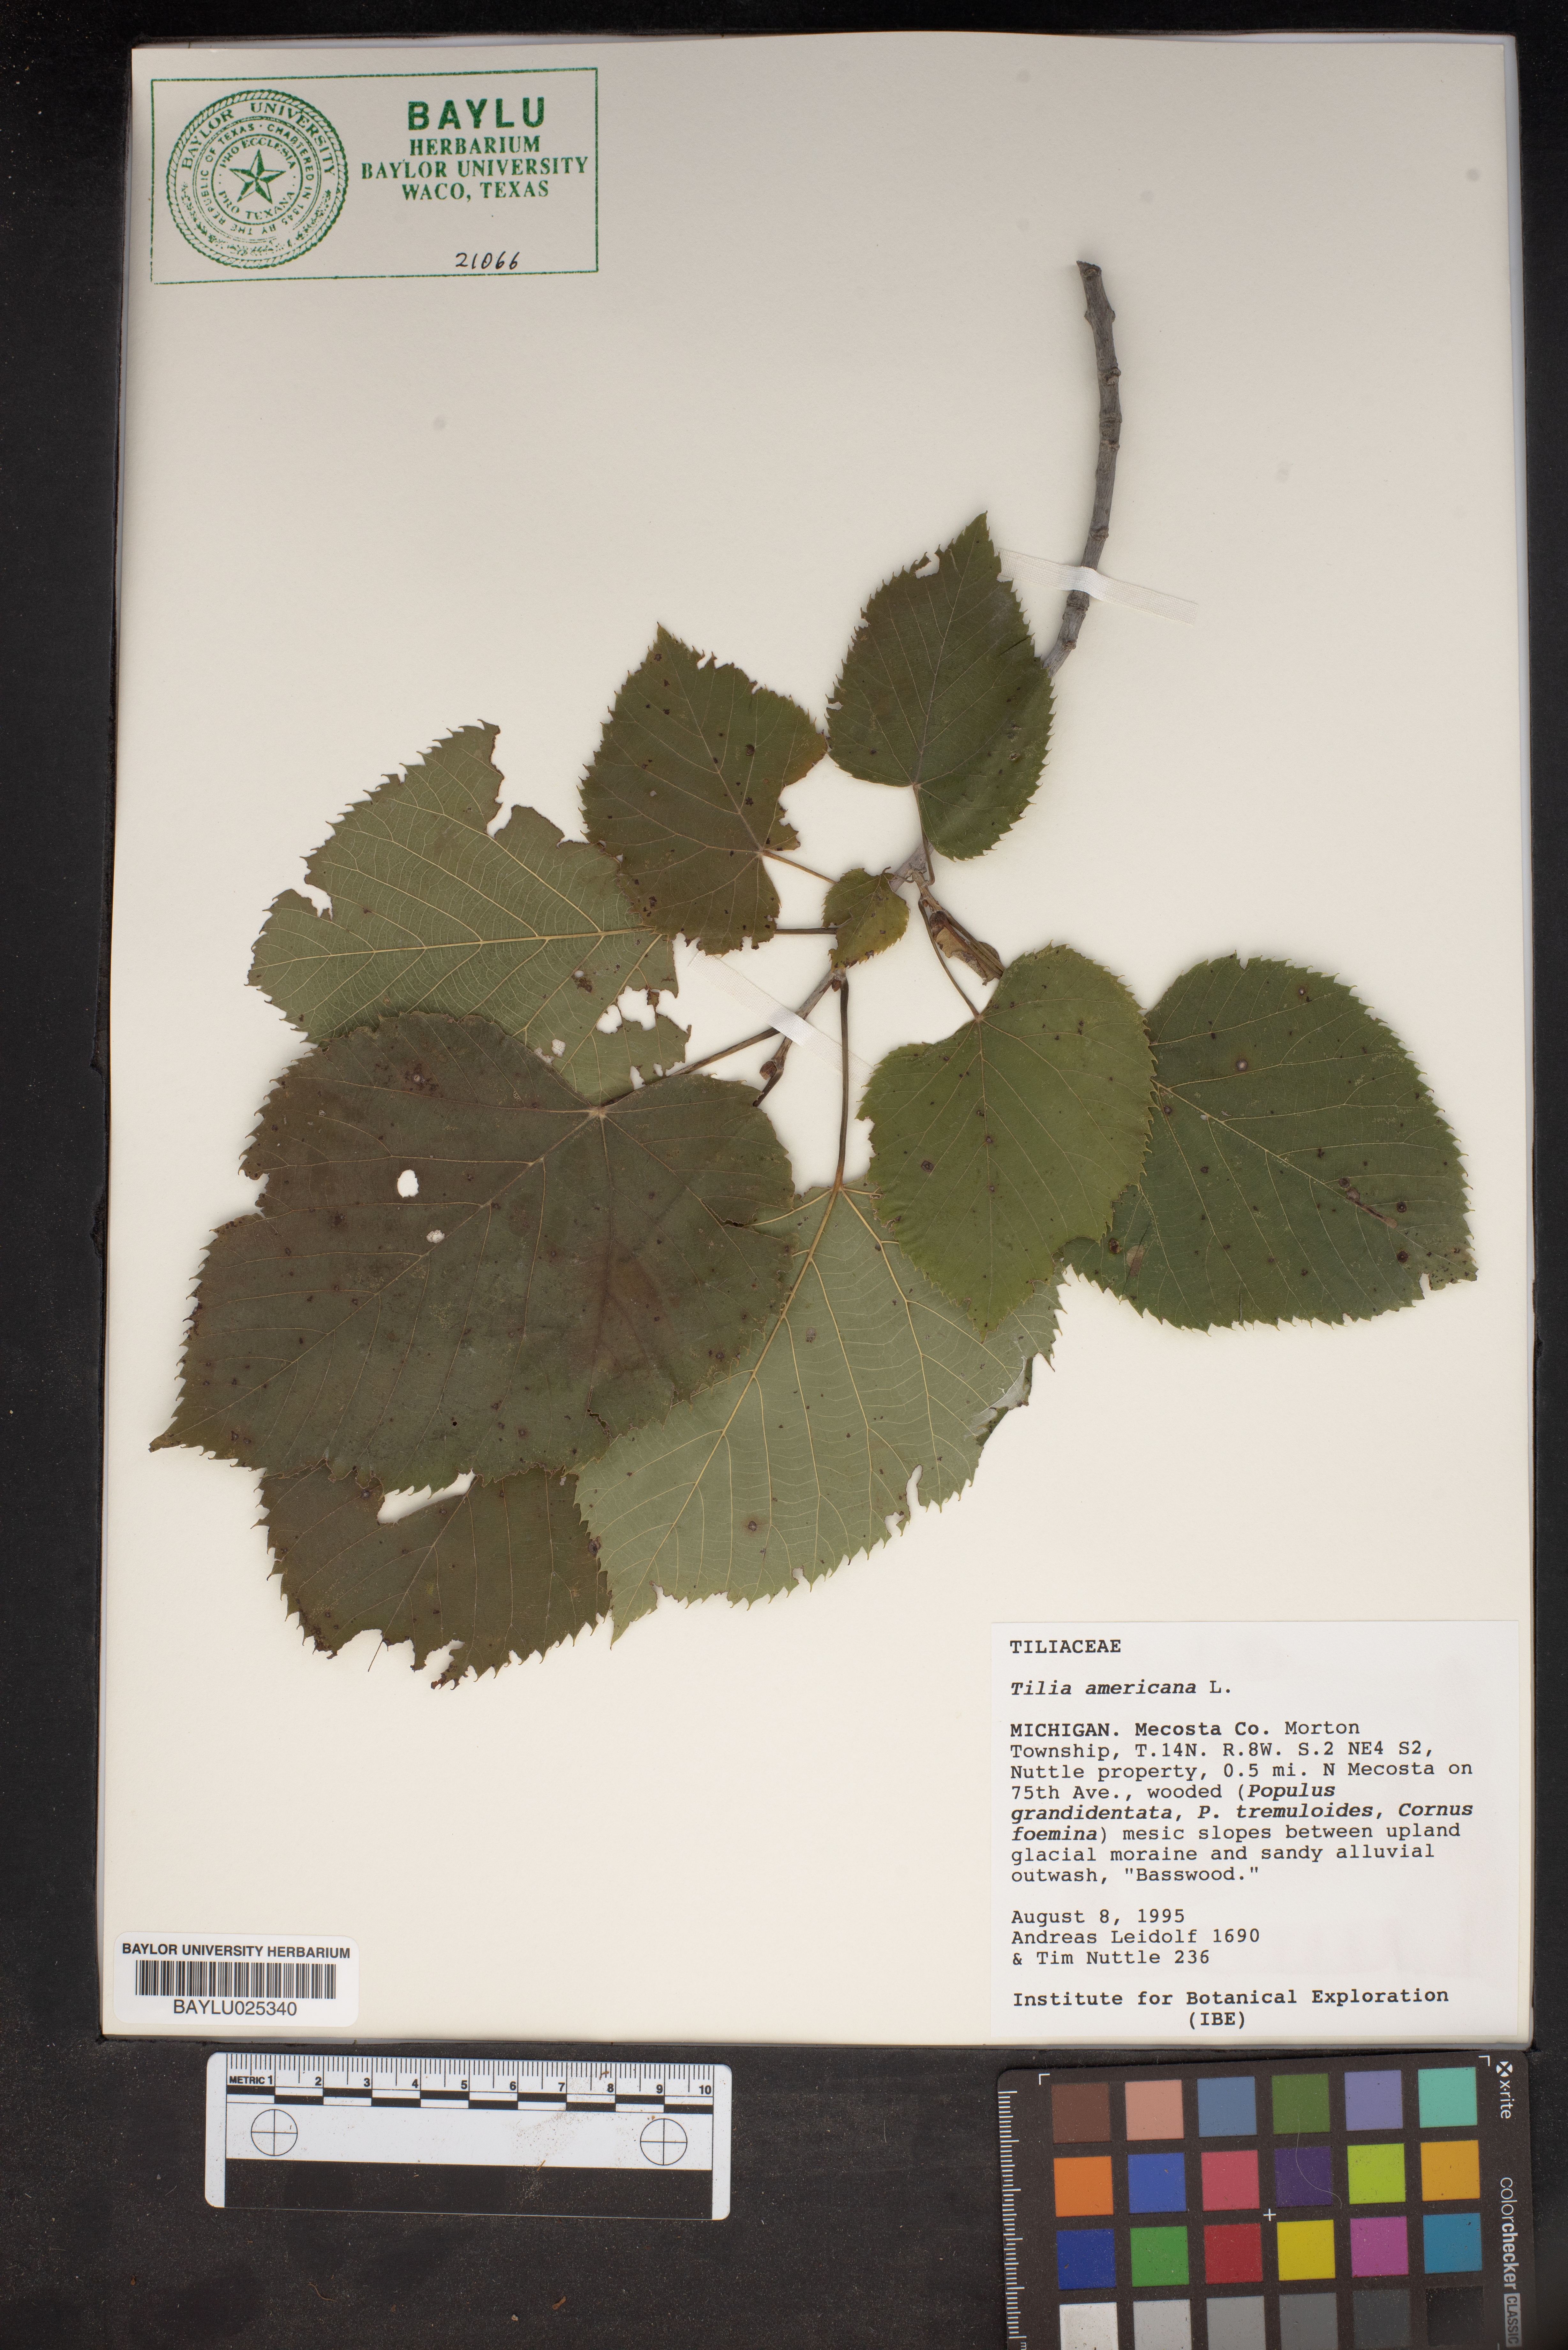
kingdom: Plantae
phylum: Tracheophyta
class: Magnoliopsida
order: Malvales
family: Malvaceae
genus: Tilia
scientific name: Tilia americana
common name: Basswood
